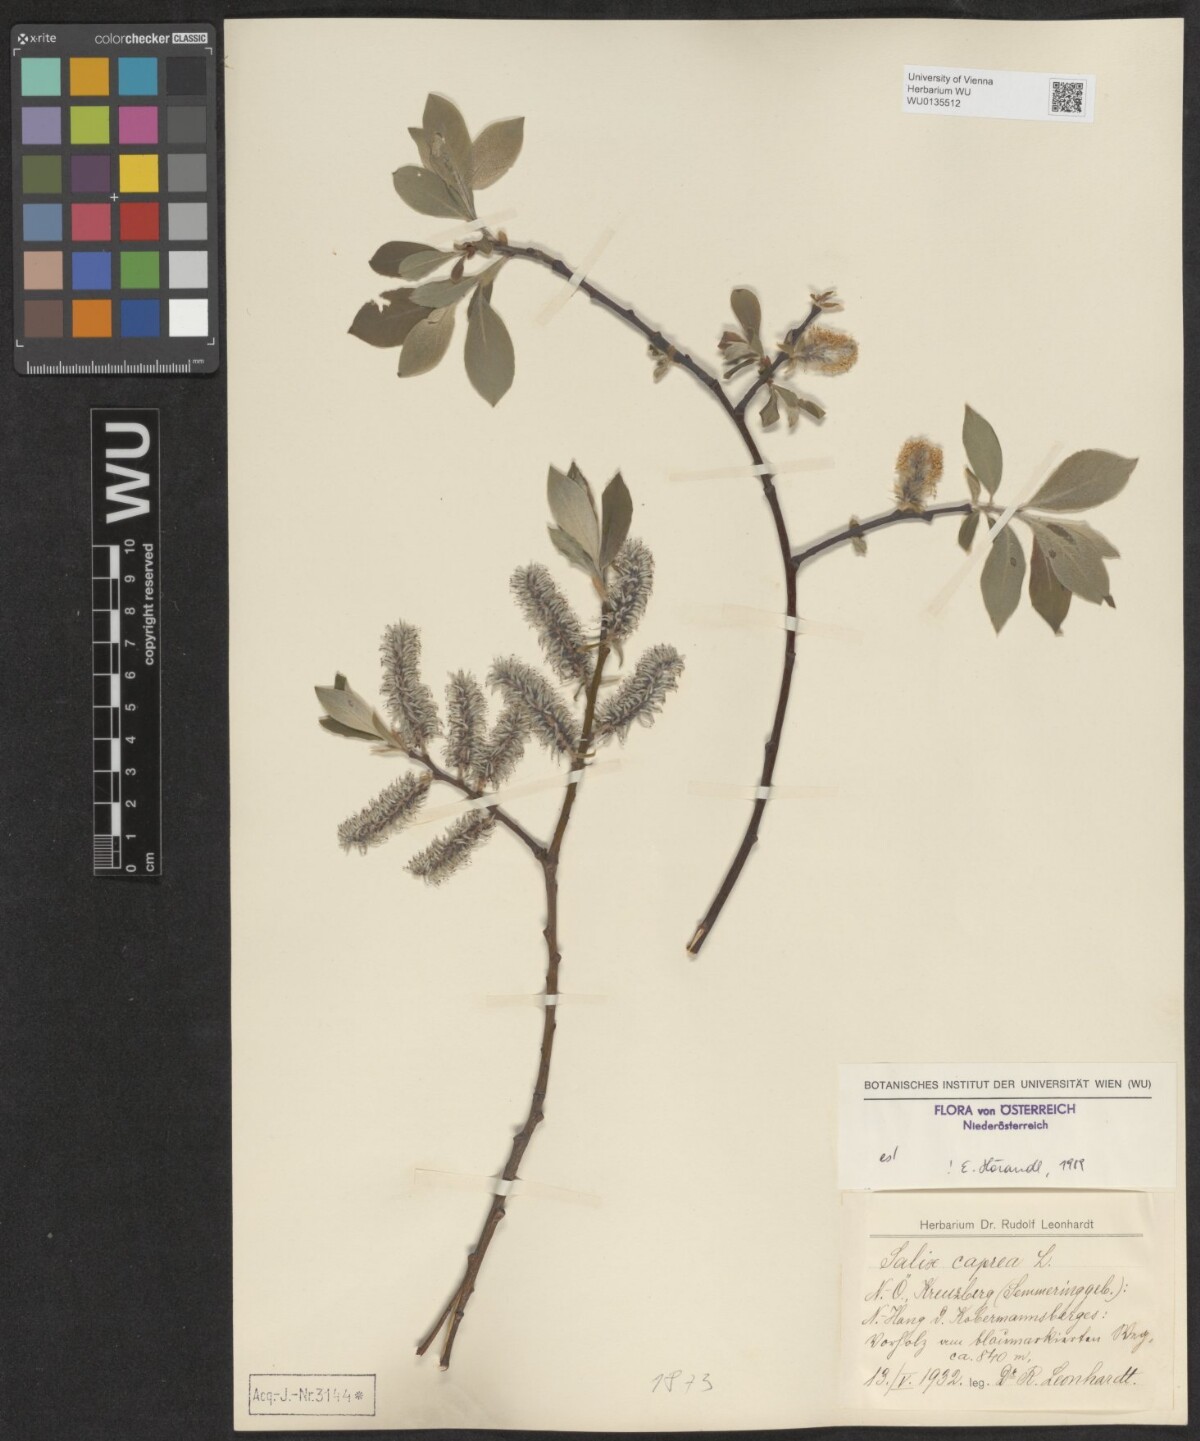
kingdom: Plantae
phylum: Tracheophyta
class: Magnoliopsida
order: Malpighiales
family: Salicaceae
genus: Salix
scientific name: Salix caprea
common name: Goat willow
